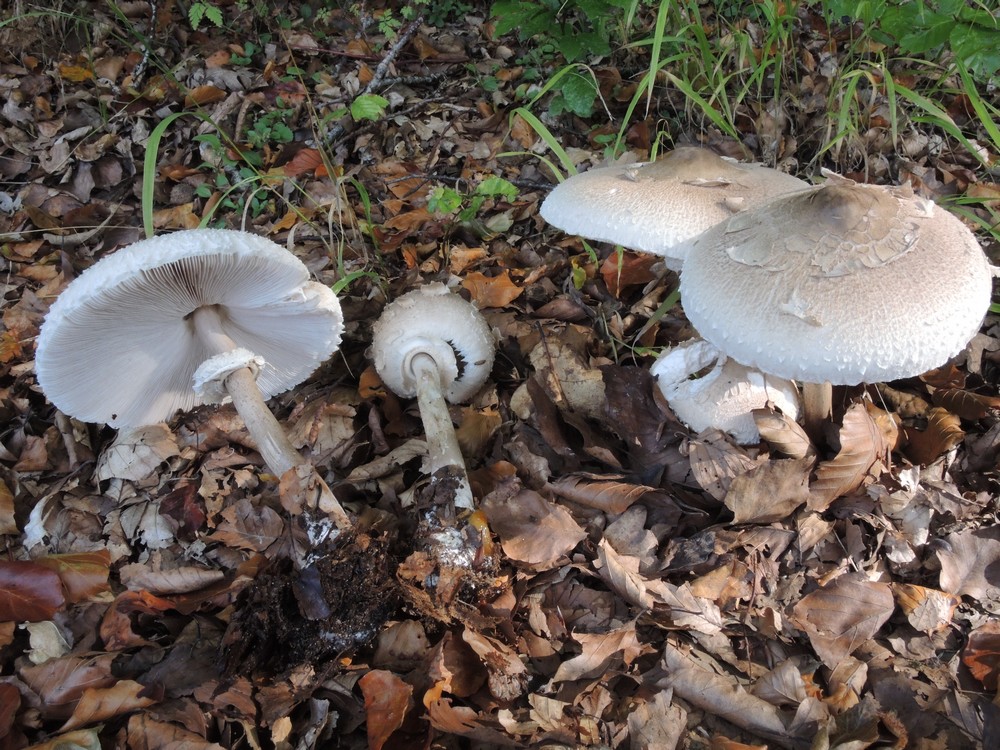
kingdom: Fungi
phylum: Basidiomycota
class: Agaricomycetes
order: Agaricales
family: Agaricaceae
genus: Macrolepiota
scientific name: Macrolepiota mastoidea
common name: puklet kæmpeparasolhat
